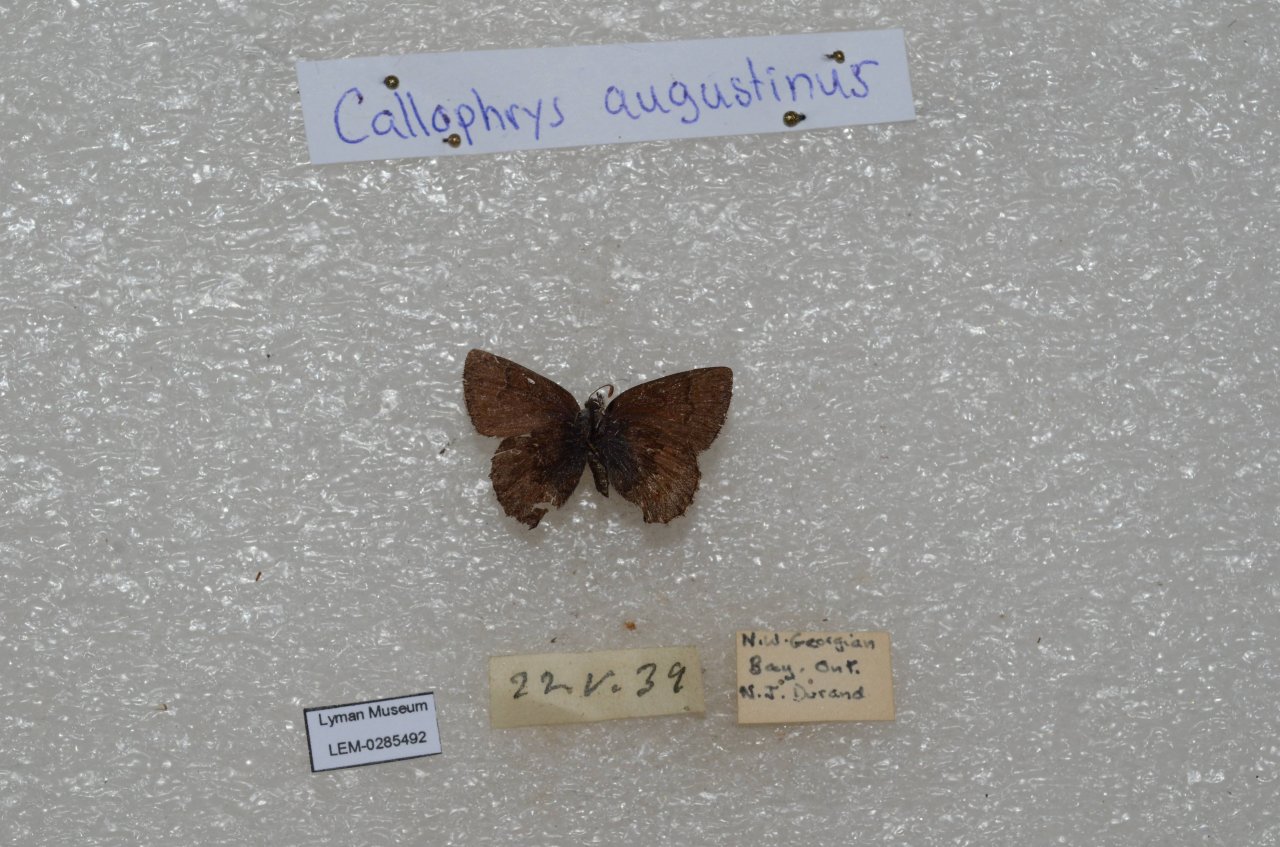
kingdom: Animalia
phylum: Arthropoda
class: Insecta
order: Lepidoptera
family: Lycaenidae
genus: Incisalia
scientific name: Incisalia irioides
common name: Brown Elfin
